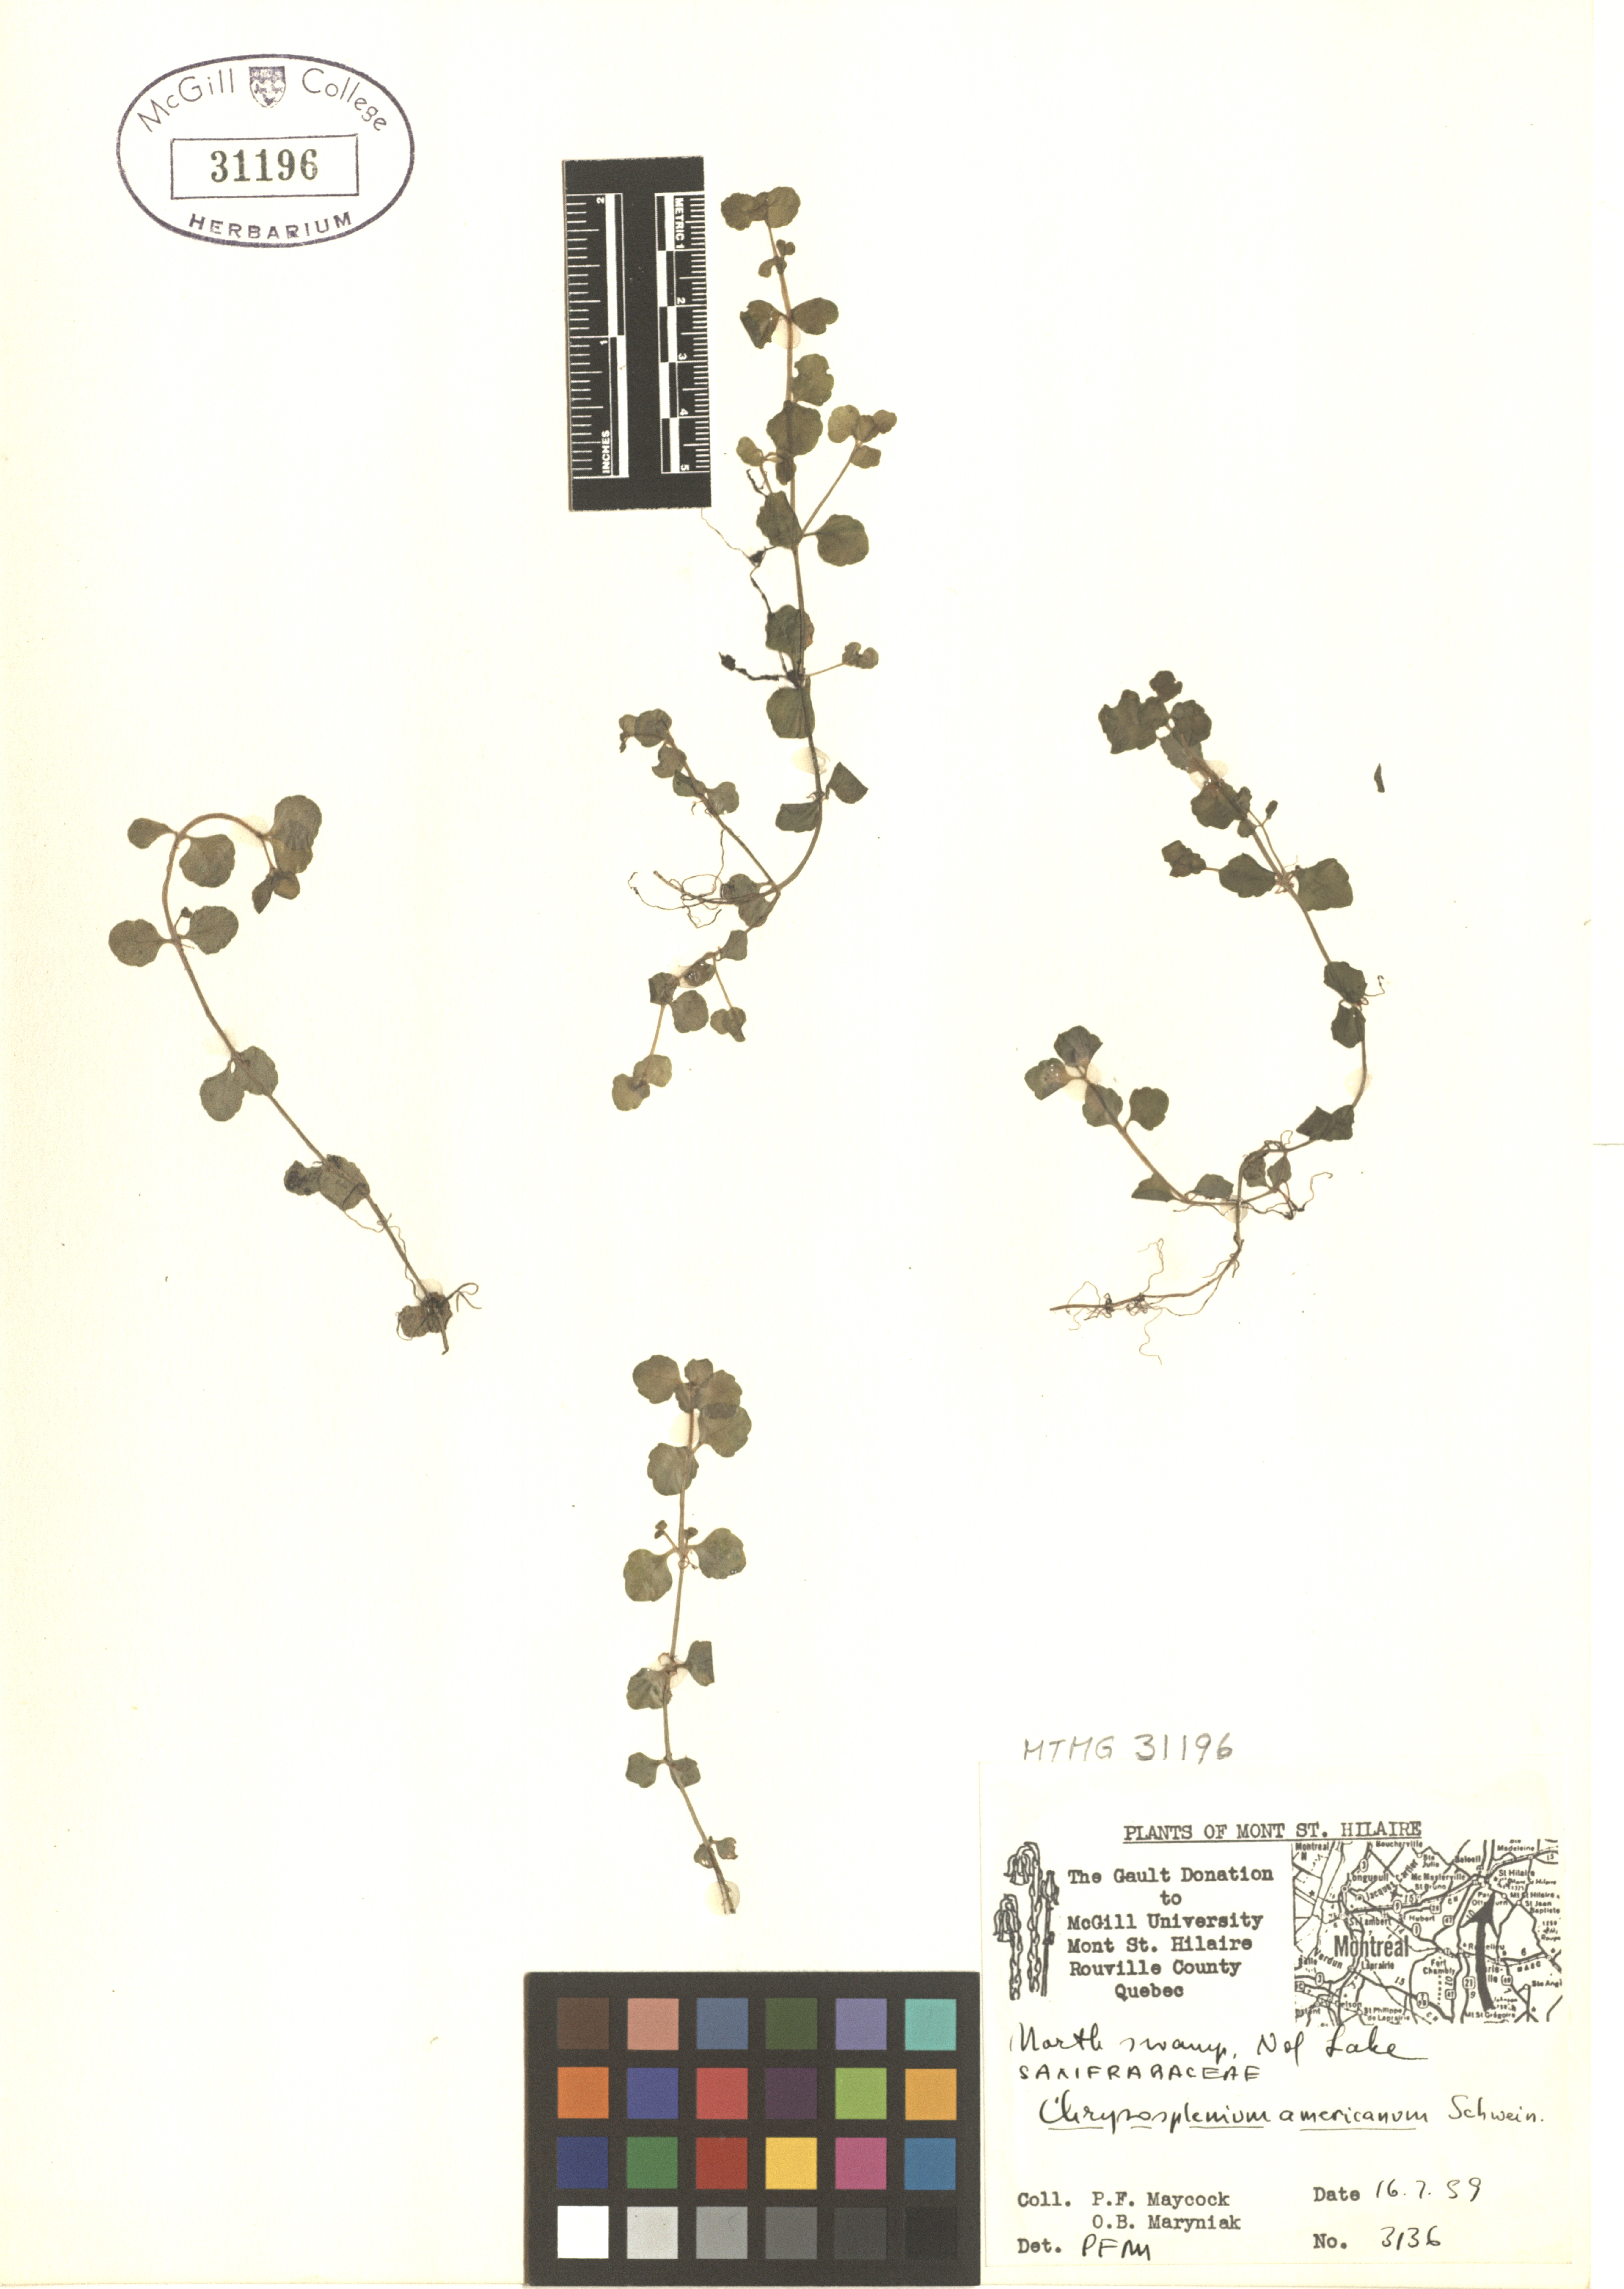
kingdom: Plantae
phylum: Tracheophyta
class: Magnoliopsida
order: Saxifragales
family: Saxifragaceae
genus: Chrysosplenium
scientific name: Chrysosplenium americanum
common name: American golden-saxifrage
